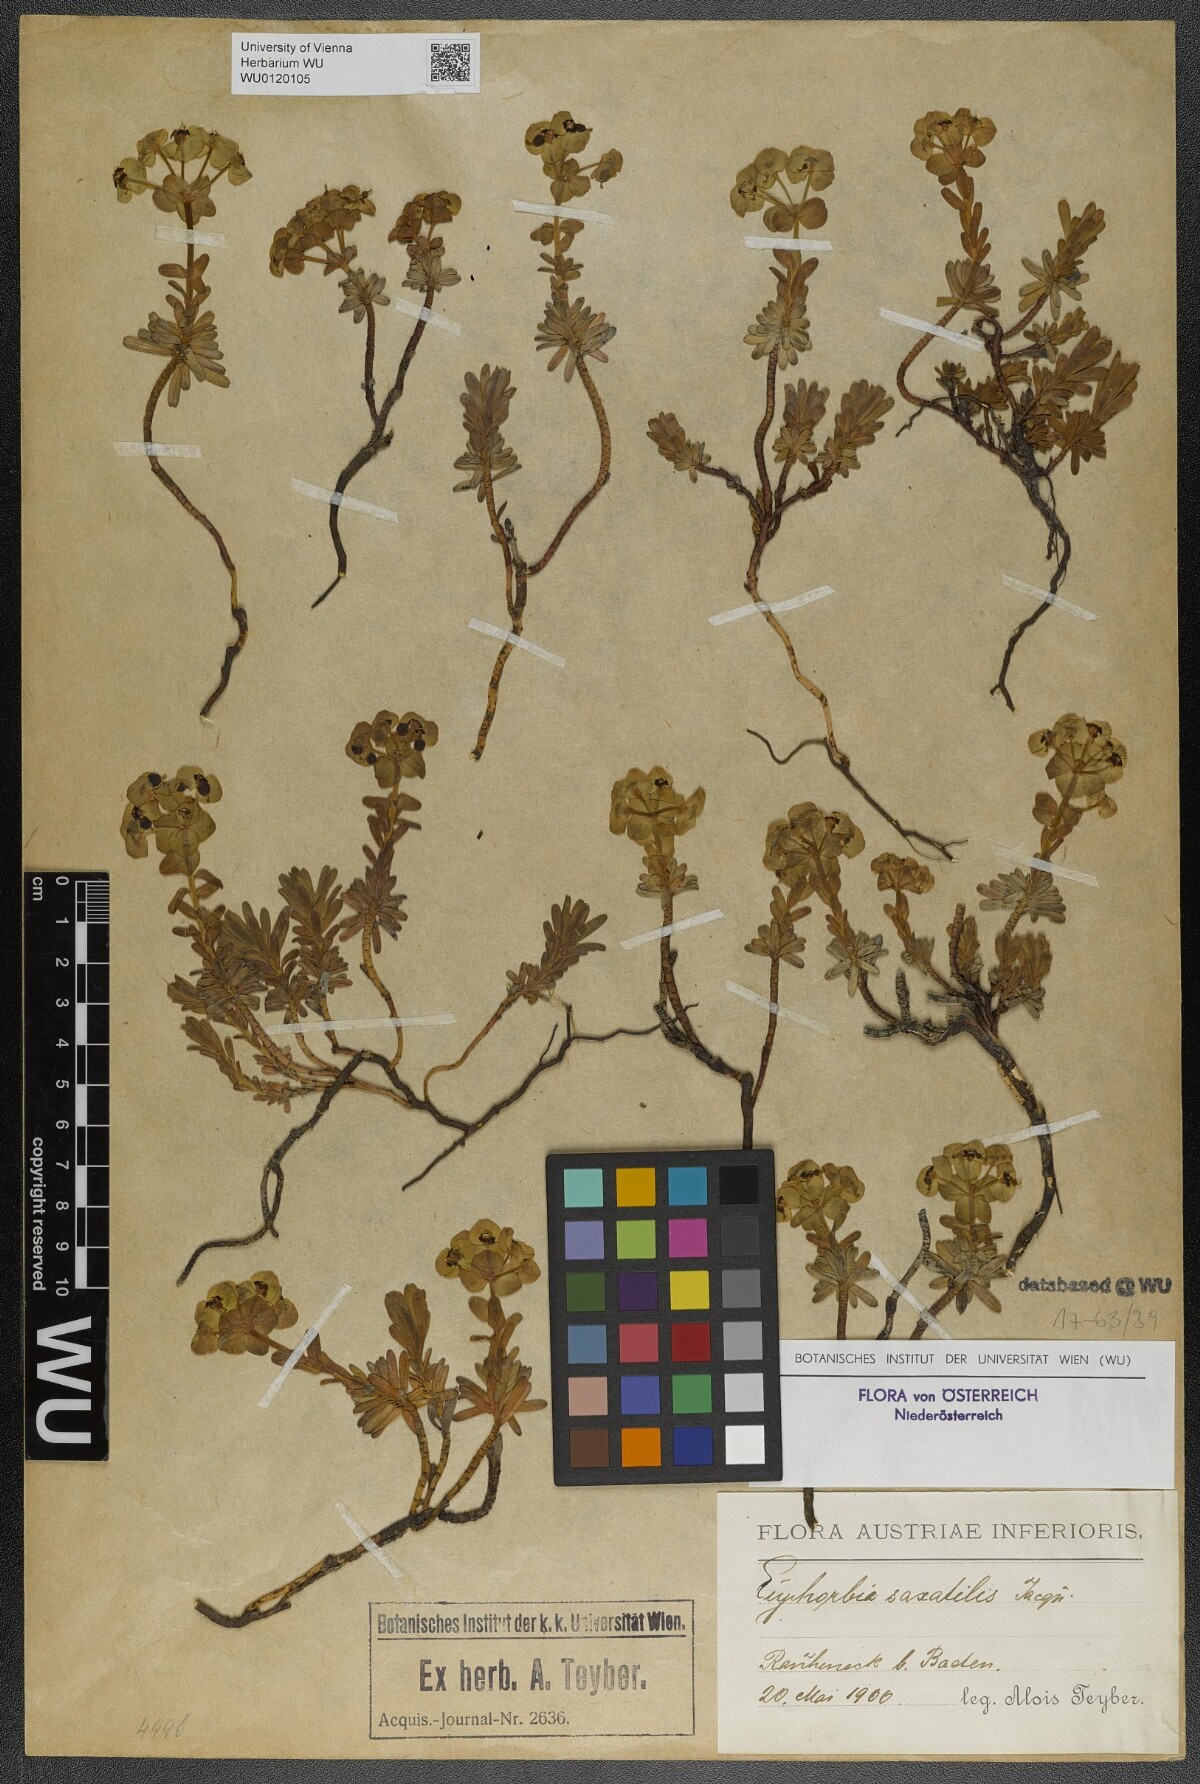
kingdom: Plantae
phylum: Tracheophyta
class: Magnoliopsida
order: Malpighiales
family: Euphorbiaceae
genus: Euphorbia
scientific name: Euphorbia saxatilis
